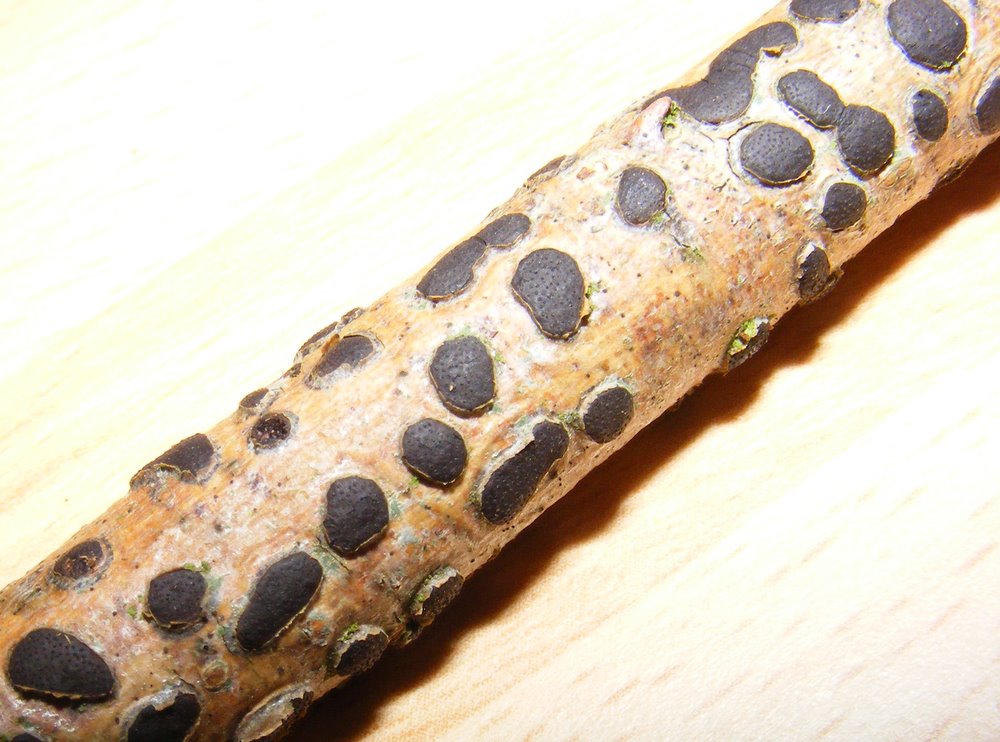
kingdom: Fungi
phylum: Ascomycota
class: Sordariomycetes
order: Xylariales
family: Diatrypaceae
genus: Diatrype
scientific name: Diatrype bullata
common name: pile-kulskorpe
